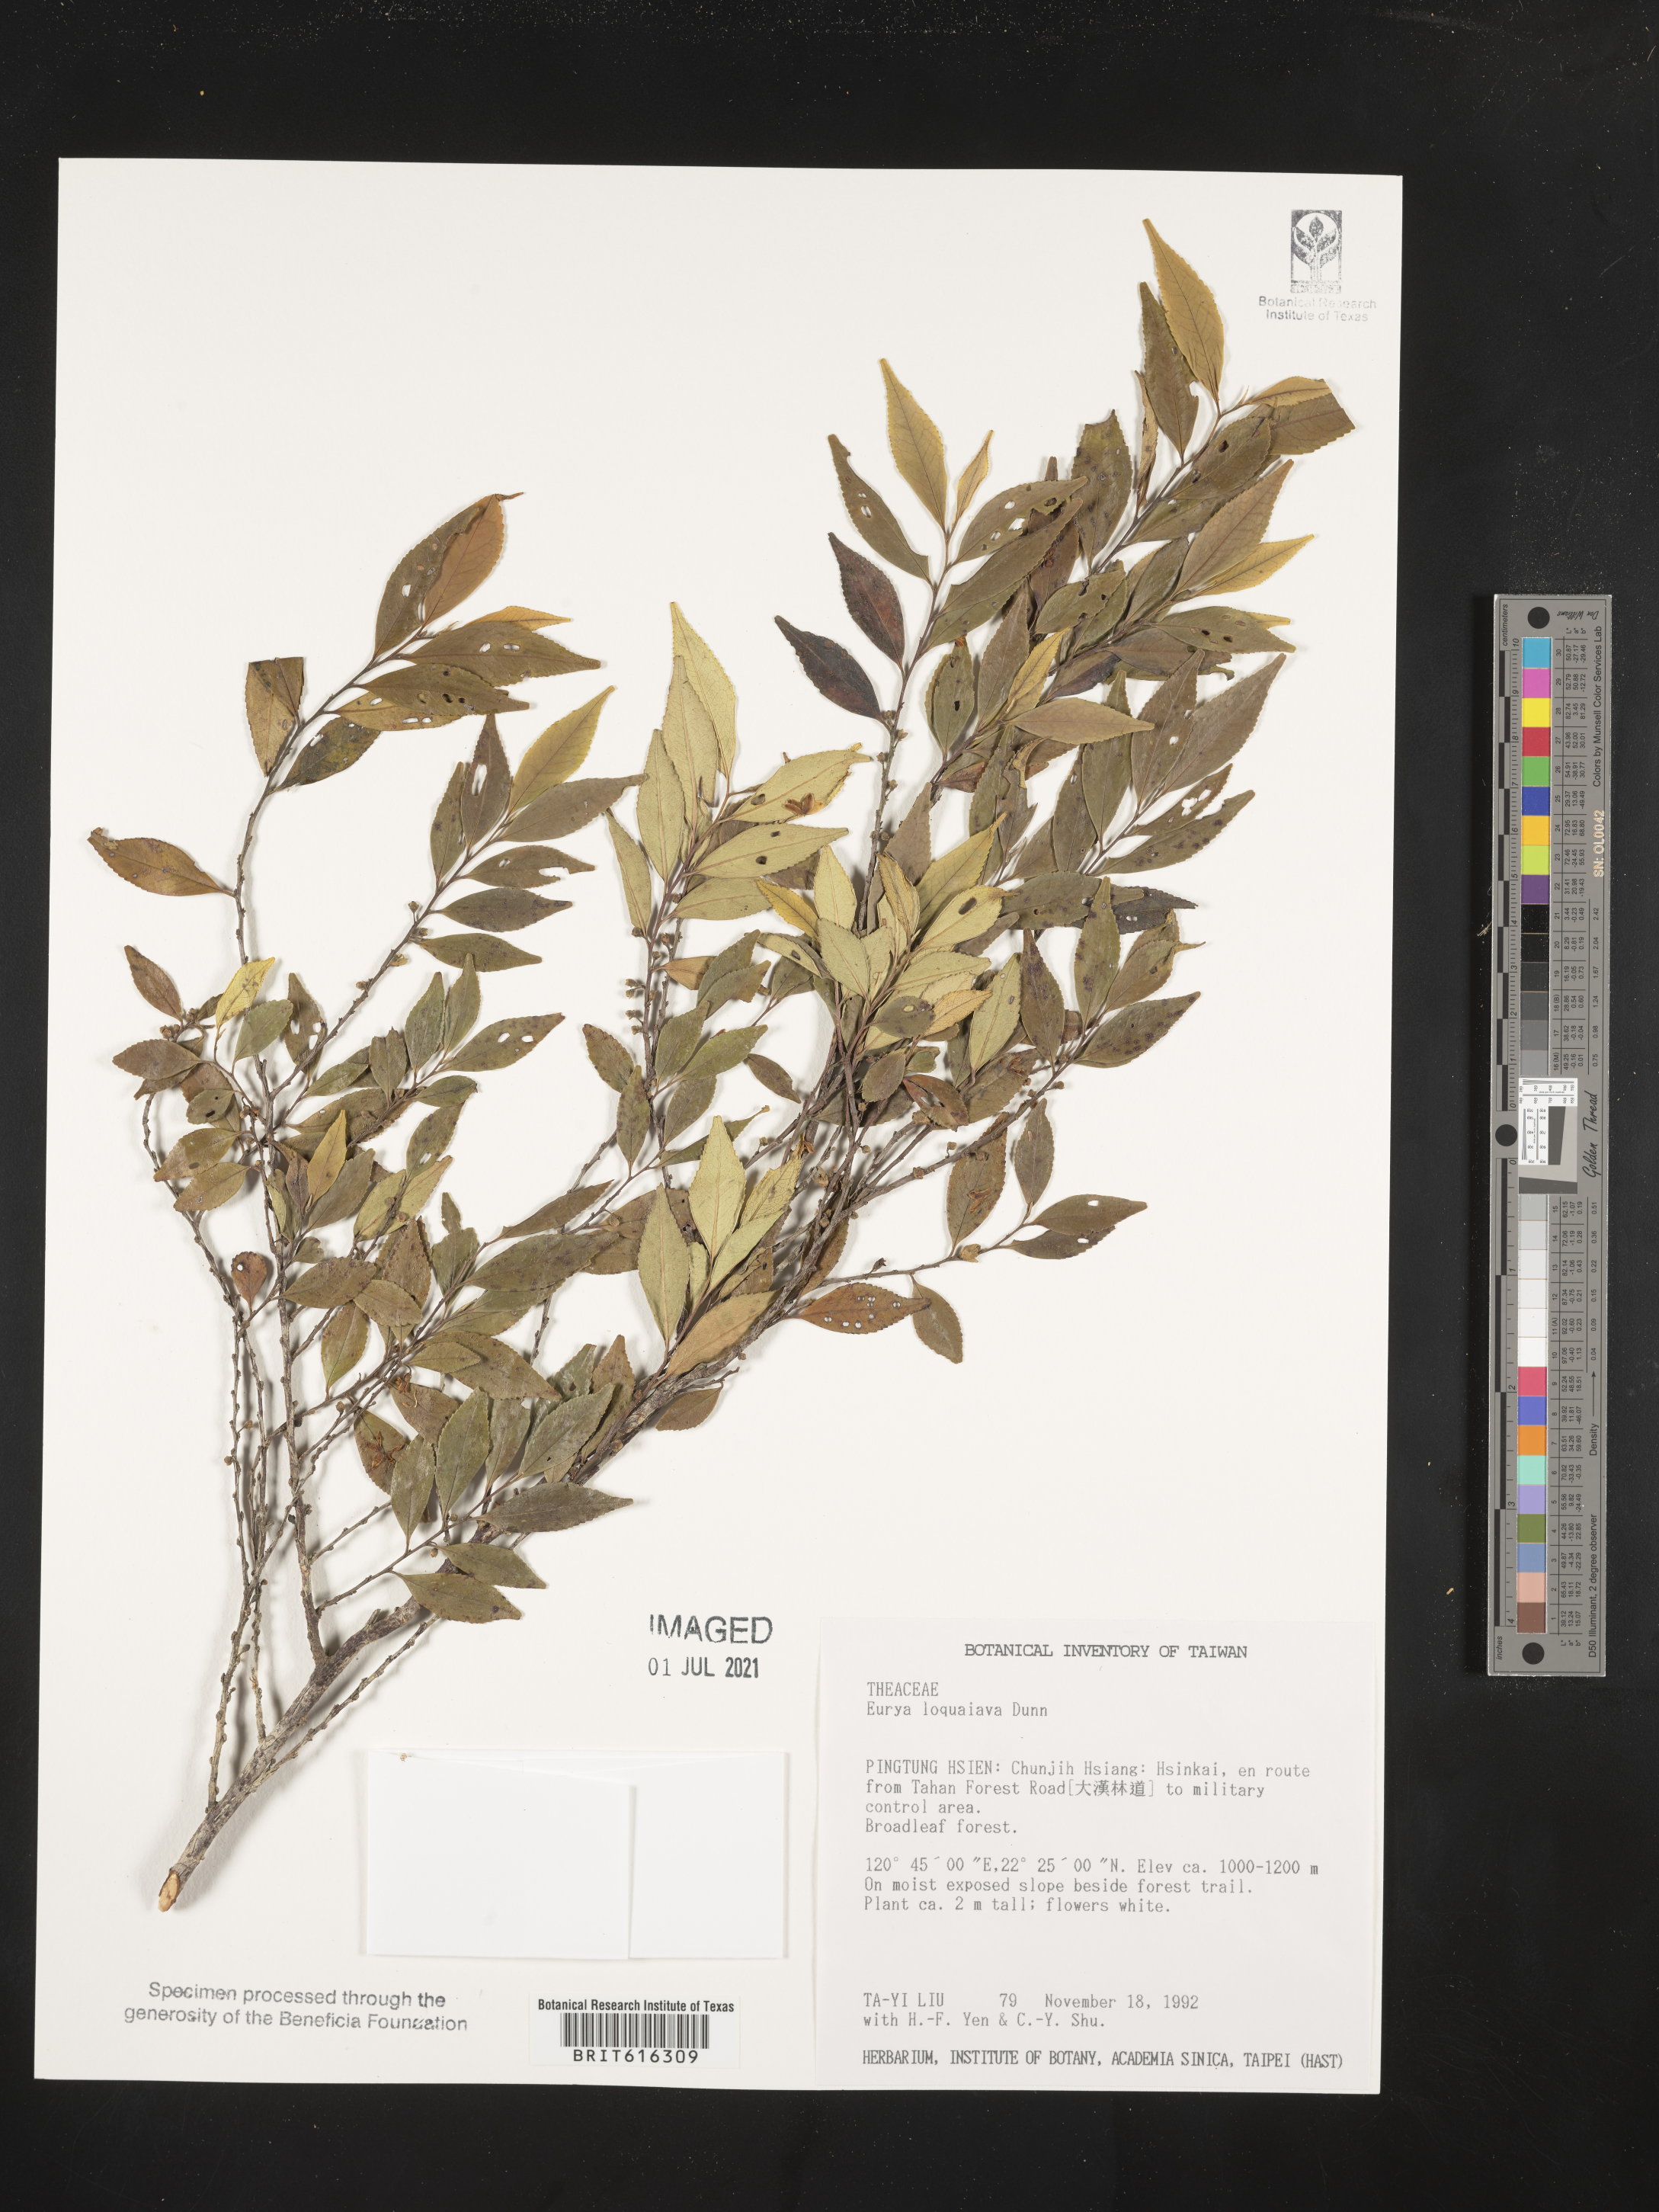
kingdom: Plantae
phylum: Tracheophyta
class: Magnoliopsida
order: Ericales
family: Pentaphylacaceae
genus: Eurya
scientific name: Eurya loquaiana
